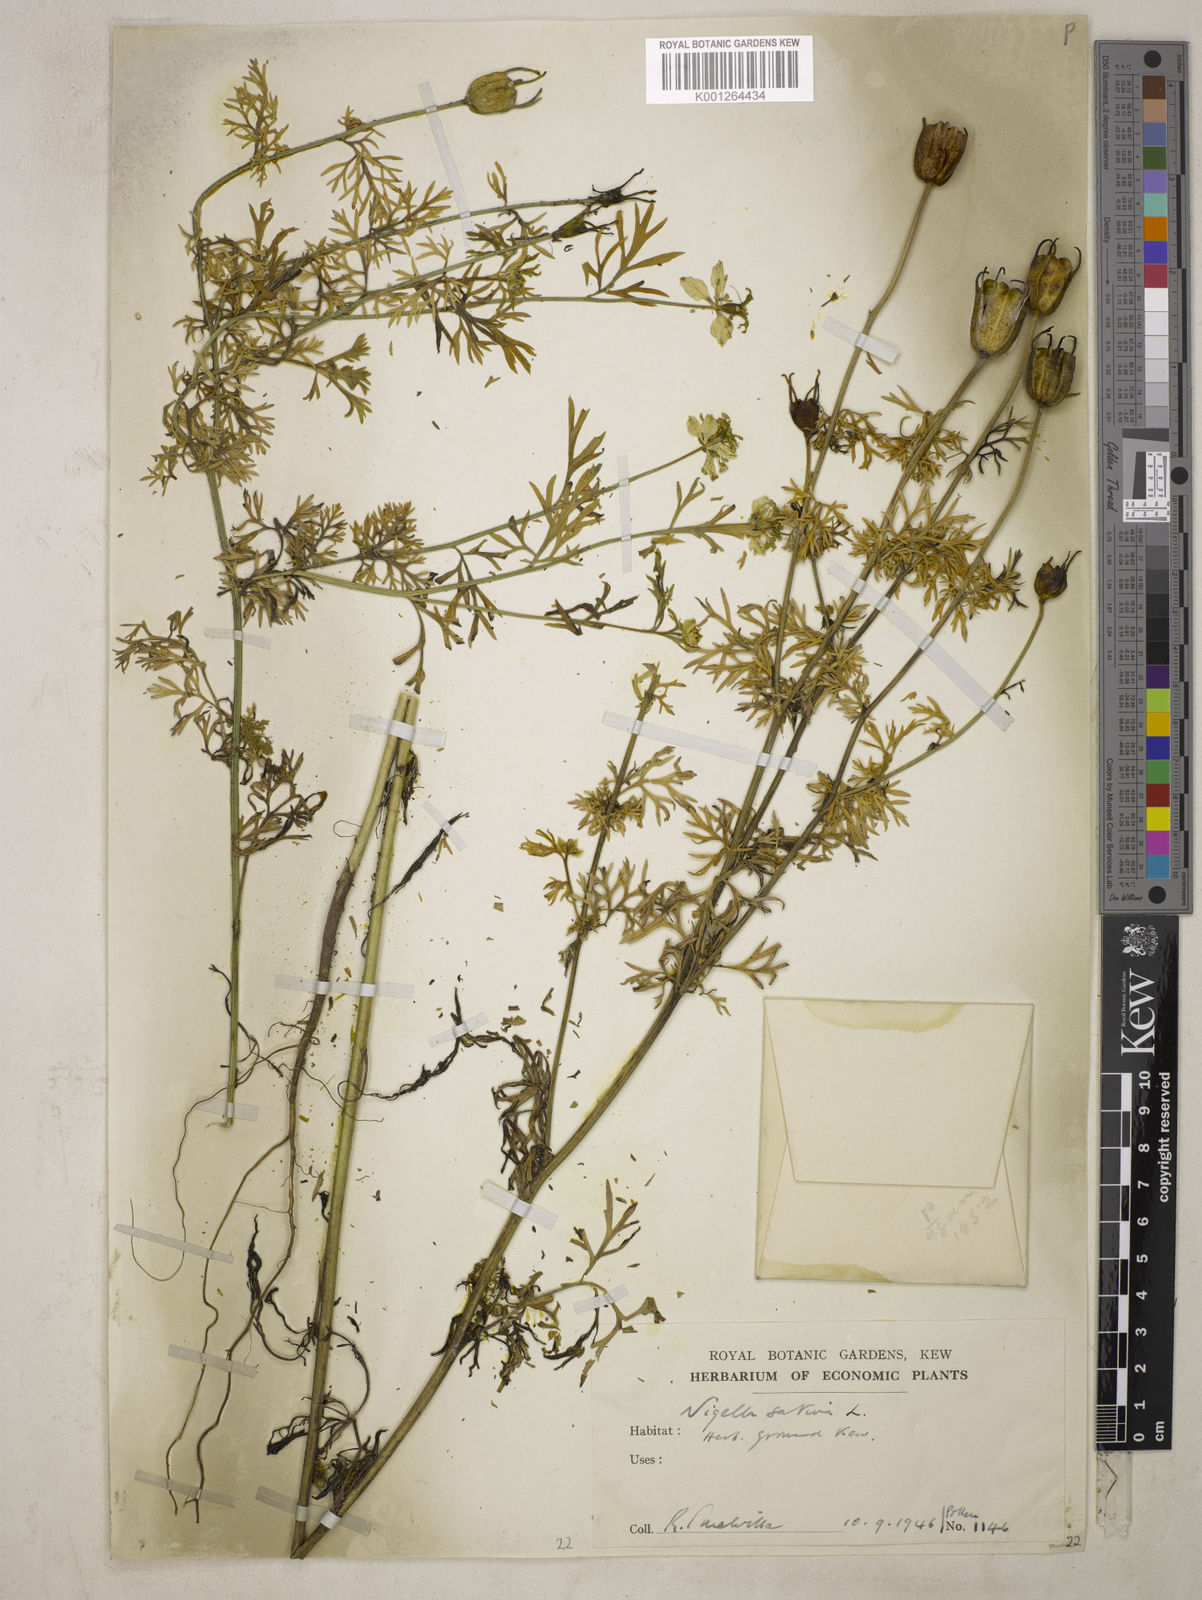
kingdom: Plantae
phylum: Tracheophyta
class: Magnoliopsida
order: Ranunculales
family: Ranunculaceae
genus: Nigella
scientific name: Nigella sativa
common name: Black-cumin
